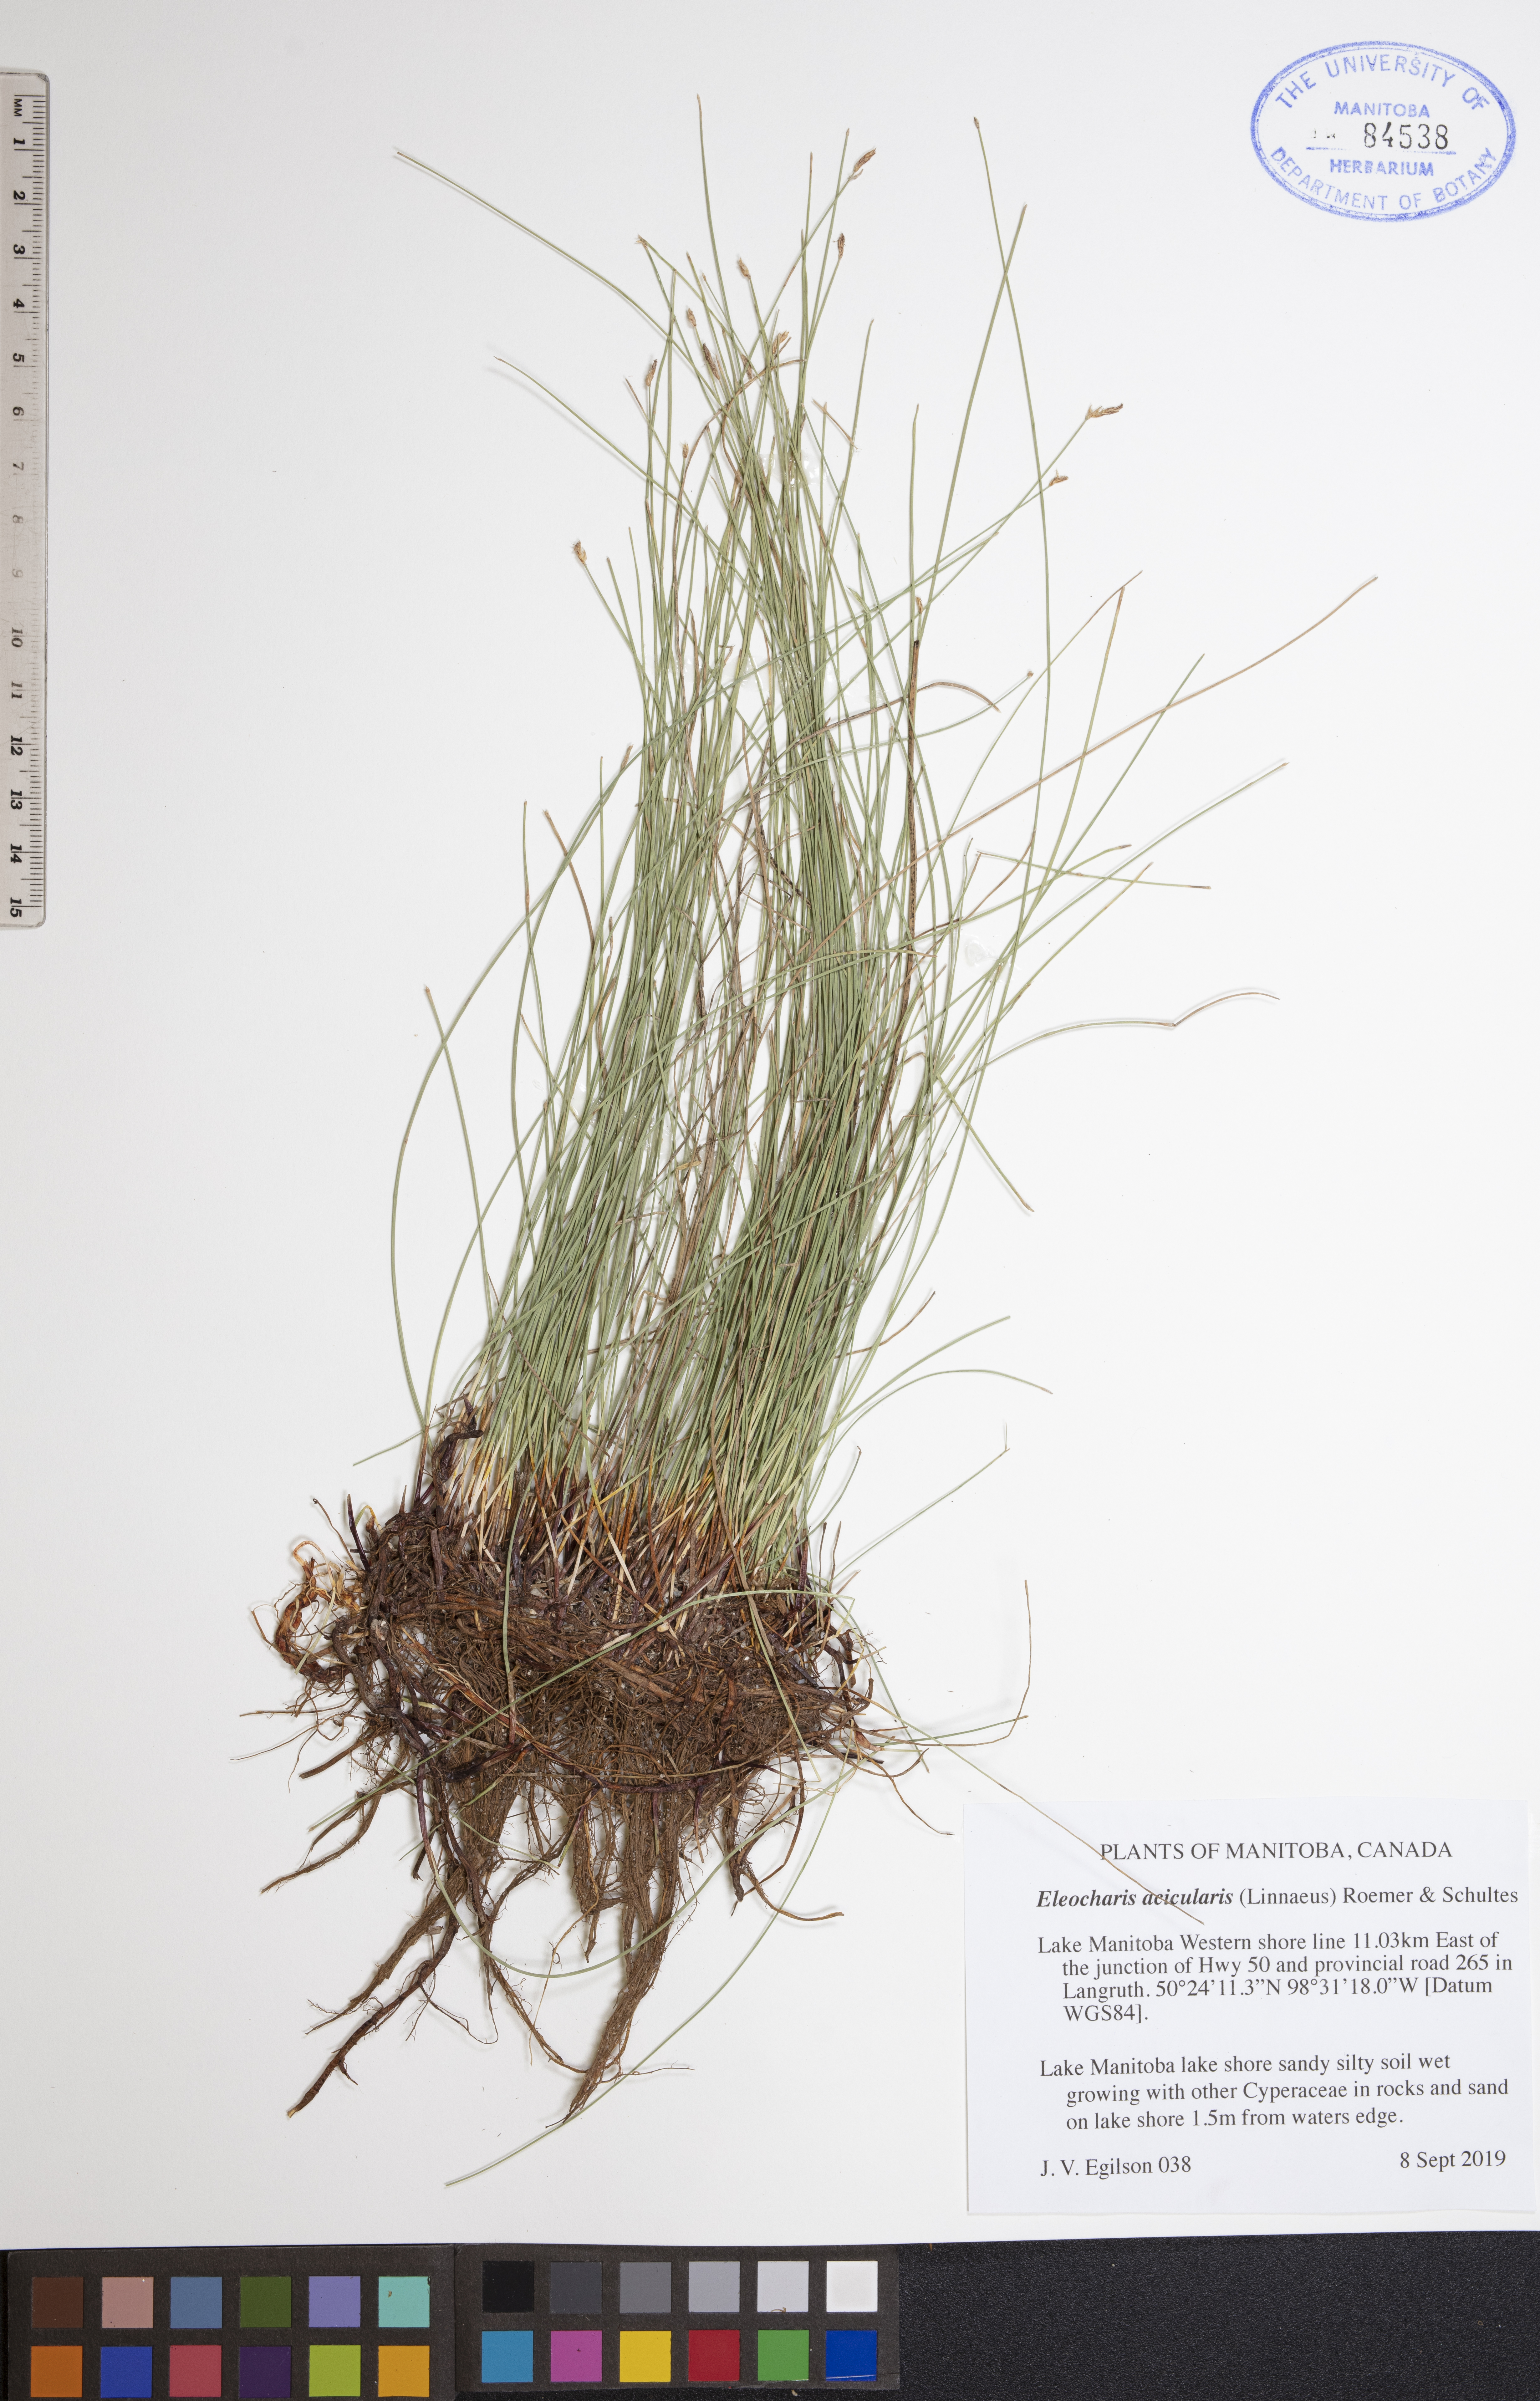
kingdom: Plantae
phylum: Tracheophyta
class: Liliopsida
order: Poales
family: Cyperaceae
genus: Eleocharis
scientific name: Eleocharis acicularis
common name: Needle spike-rush
